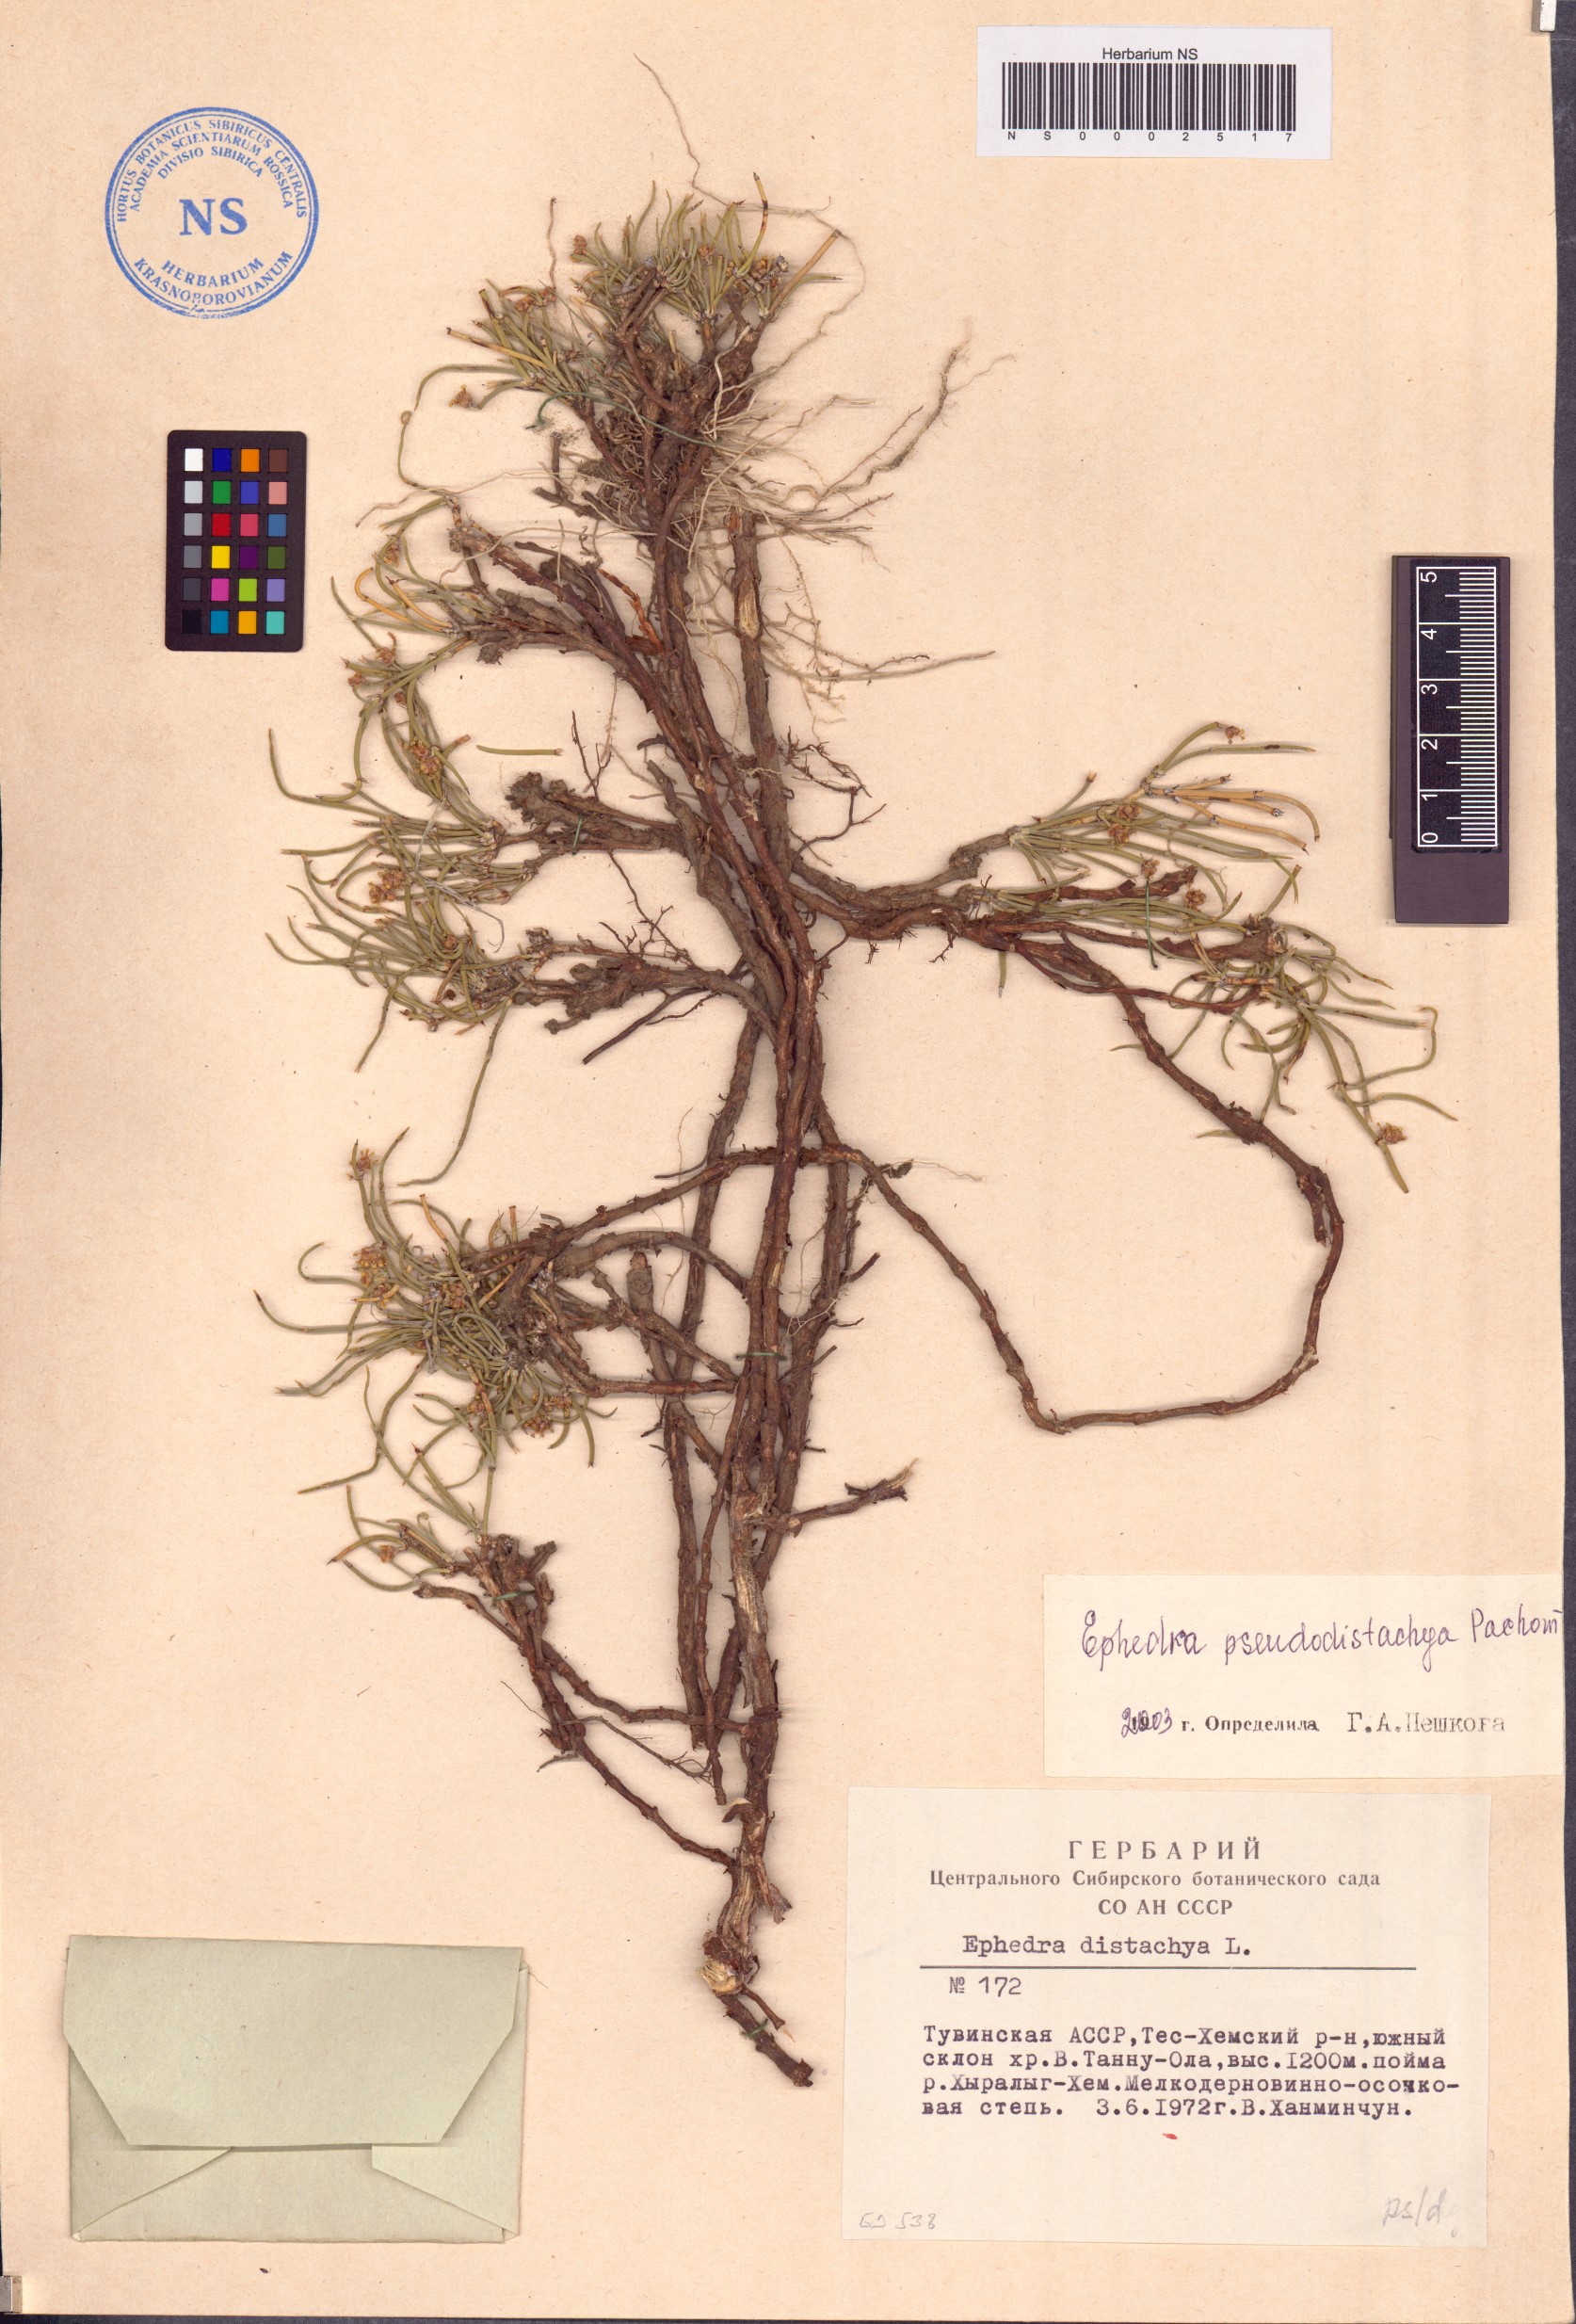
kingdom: Plantae
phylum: Tracheophyta
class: Gnetopsida
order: Ephedrales
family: Ephedraceae
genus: Ephedra
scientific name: Ephedra pseudodistachya
